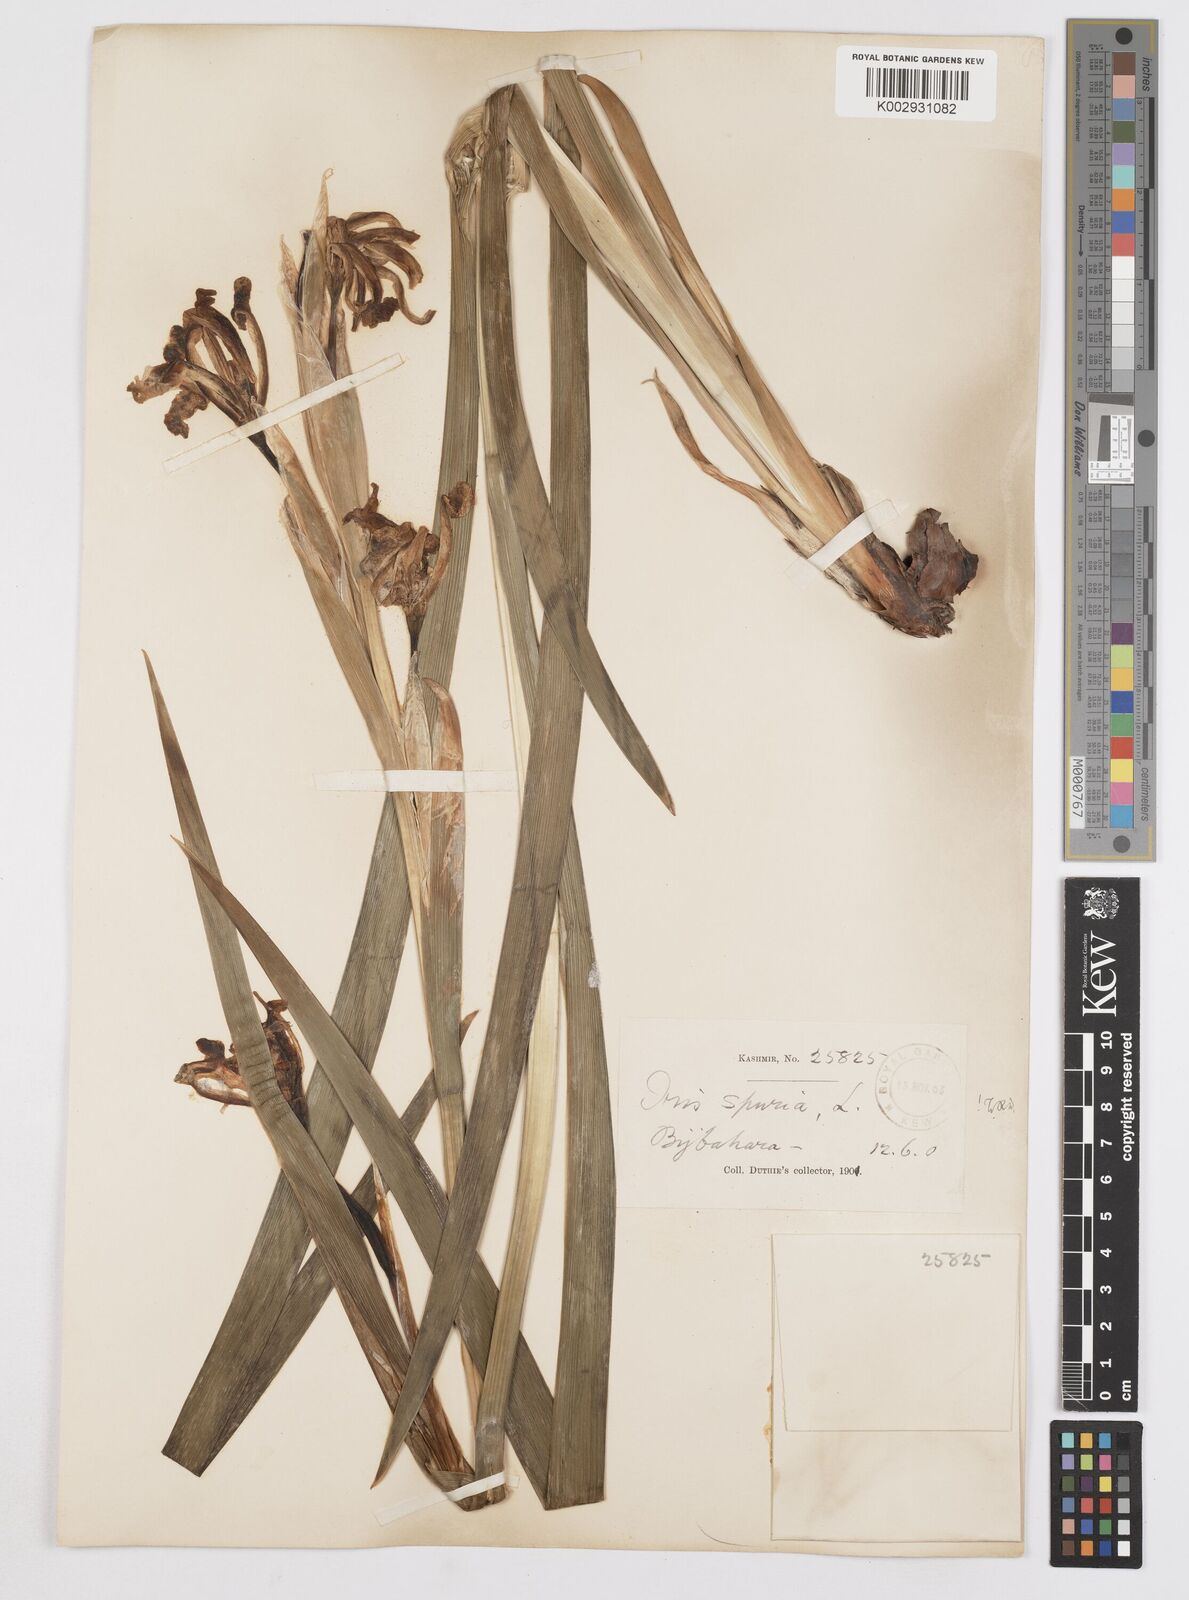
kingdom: Plantae
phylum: Tracheophyta
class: Liliopsida
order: Asparagales
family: Iridaceae
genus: Iris
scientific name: Iris spuria
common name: Blue iris
